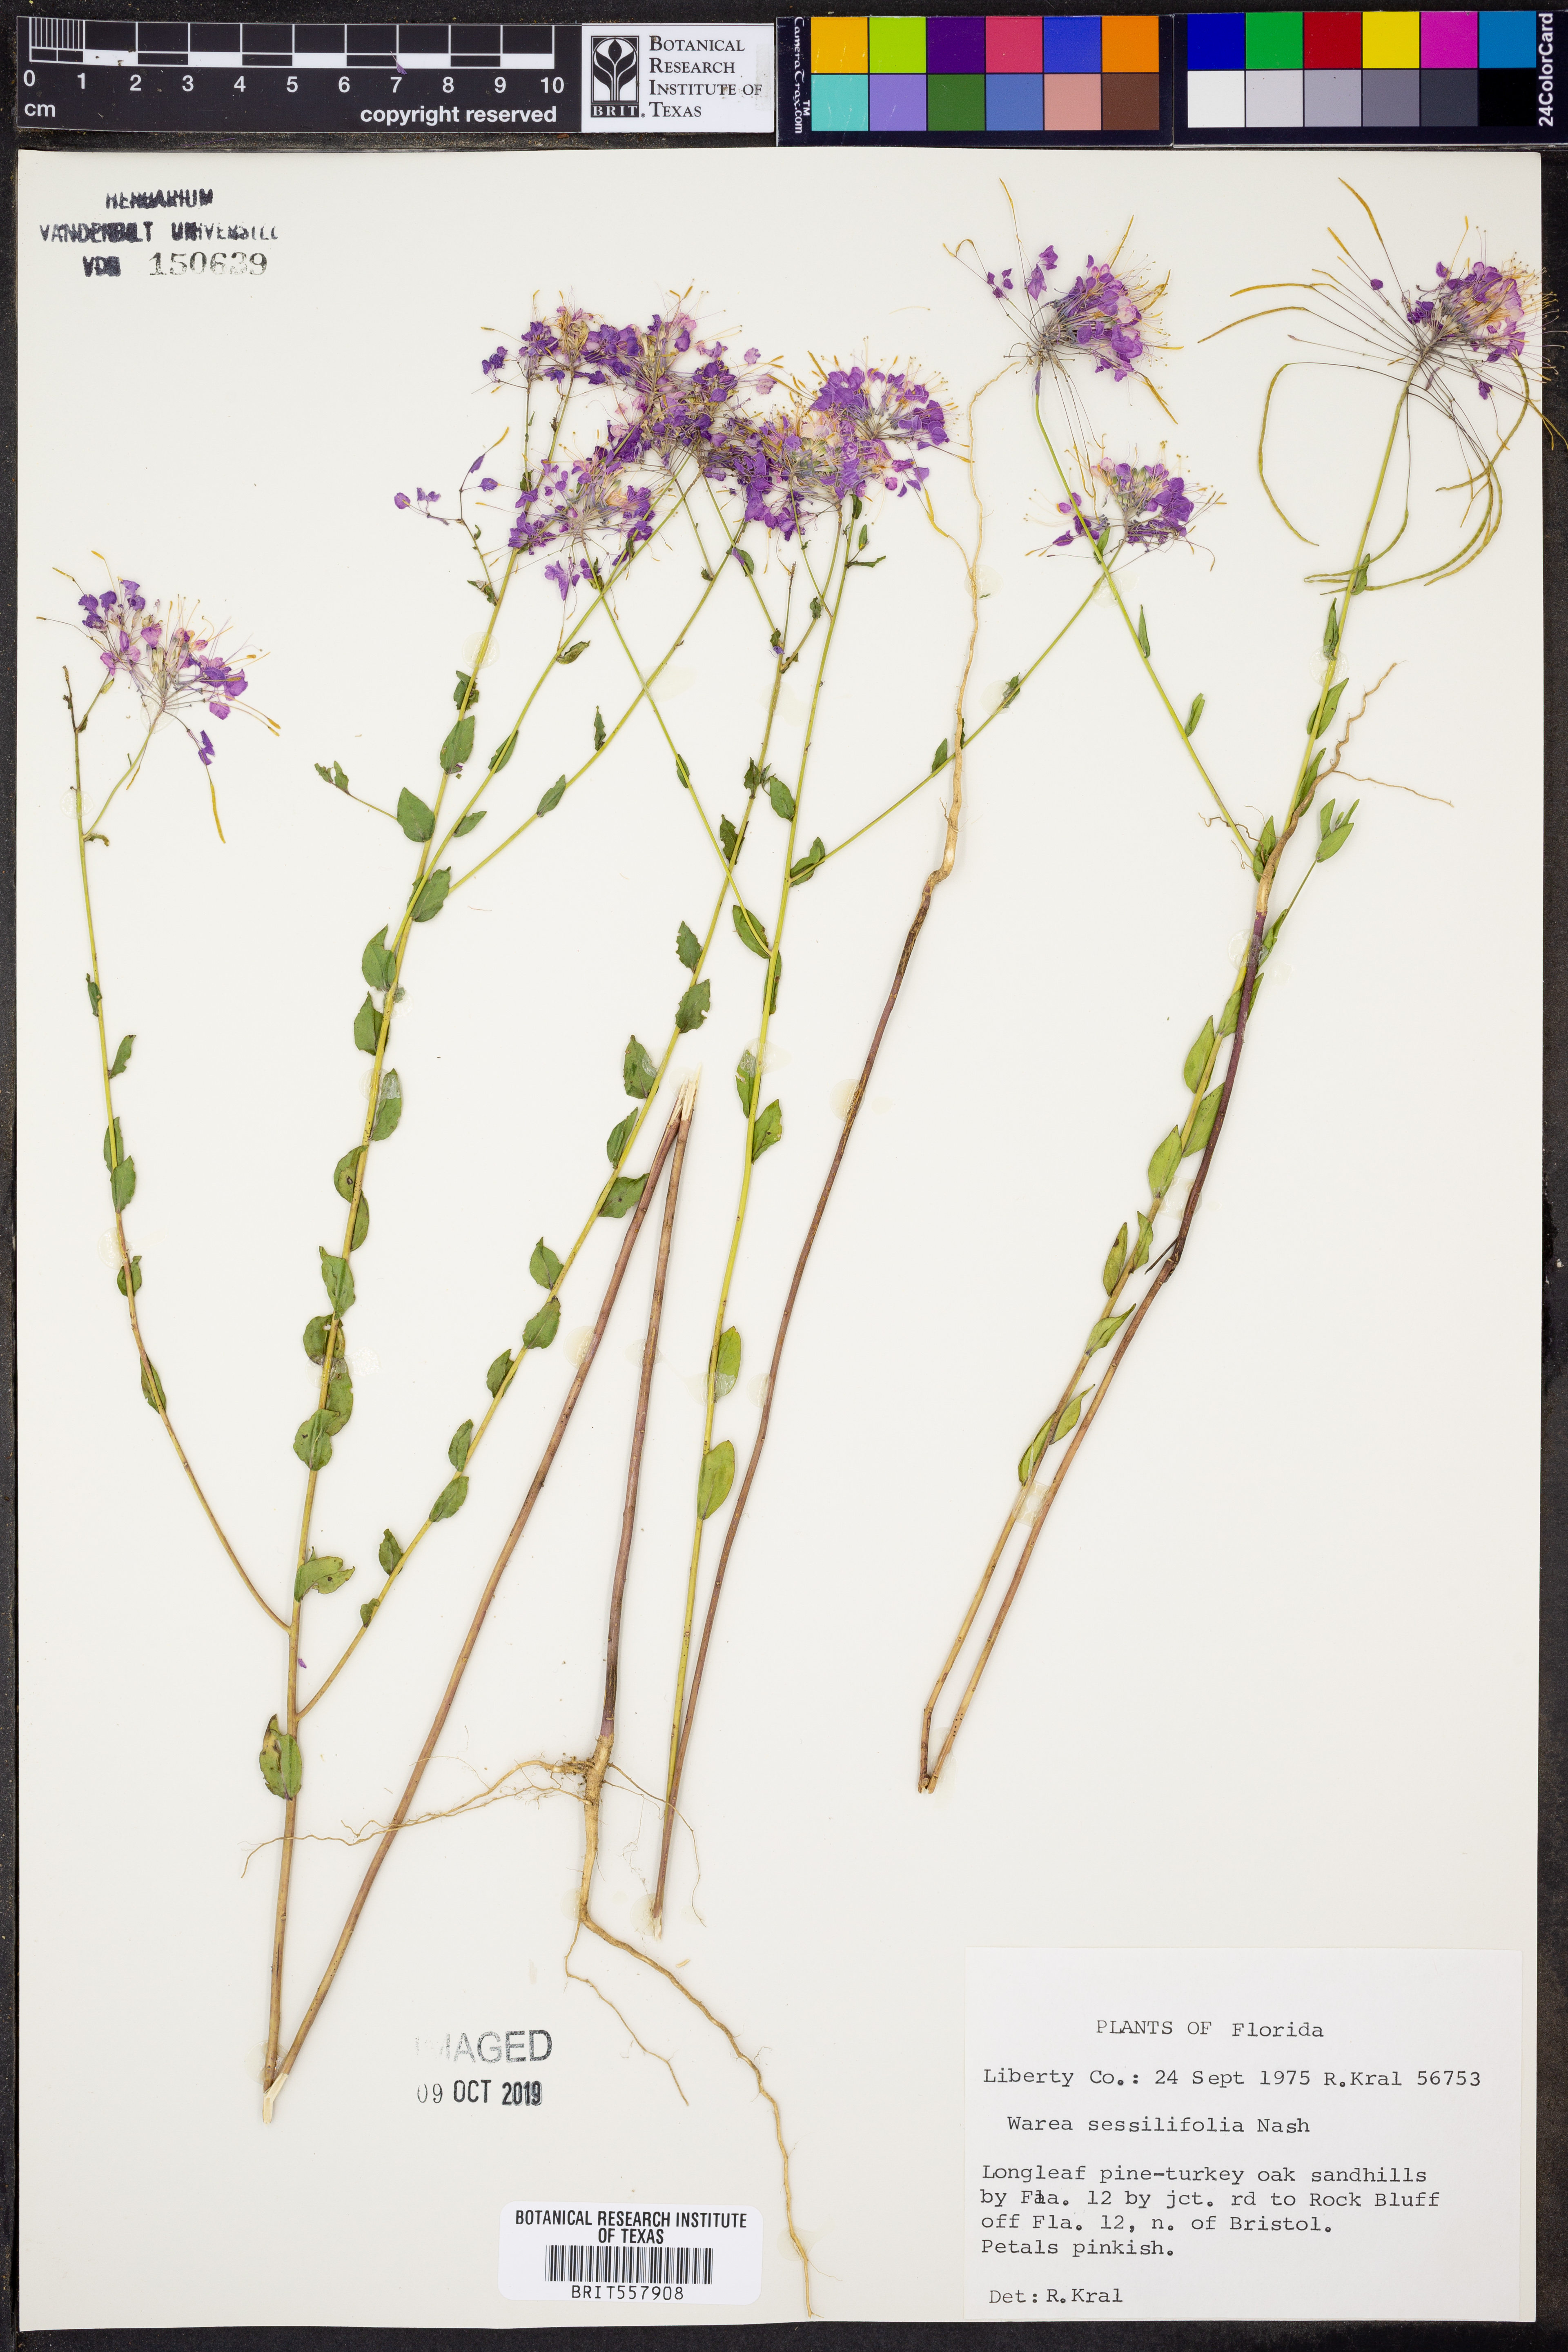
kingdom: Plantae
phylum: Tracheophyta
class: Magnoliopsida
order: Brassicales
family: Brassicaceae
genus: Warea
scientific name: Warea sessilifolia
